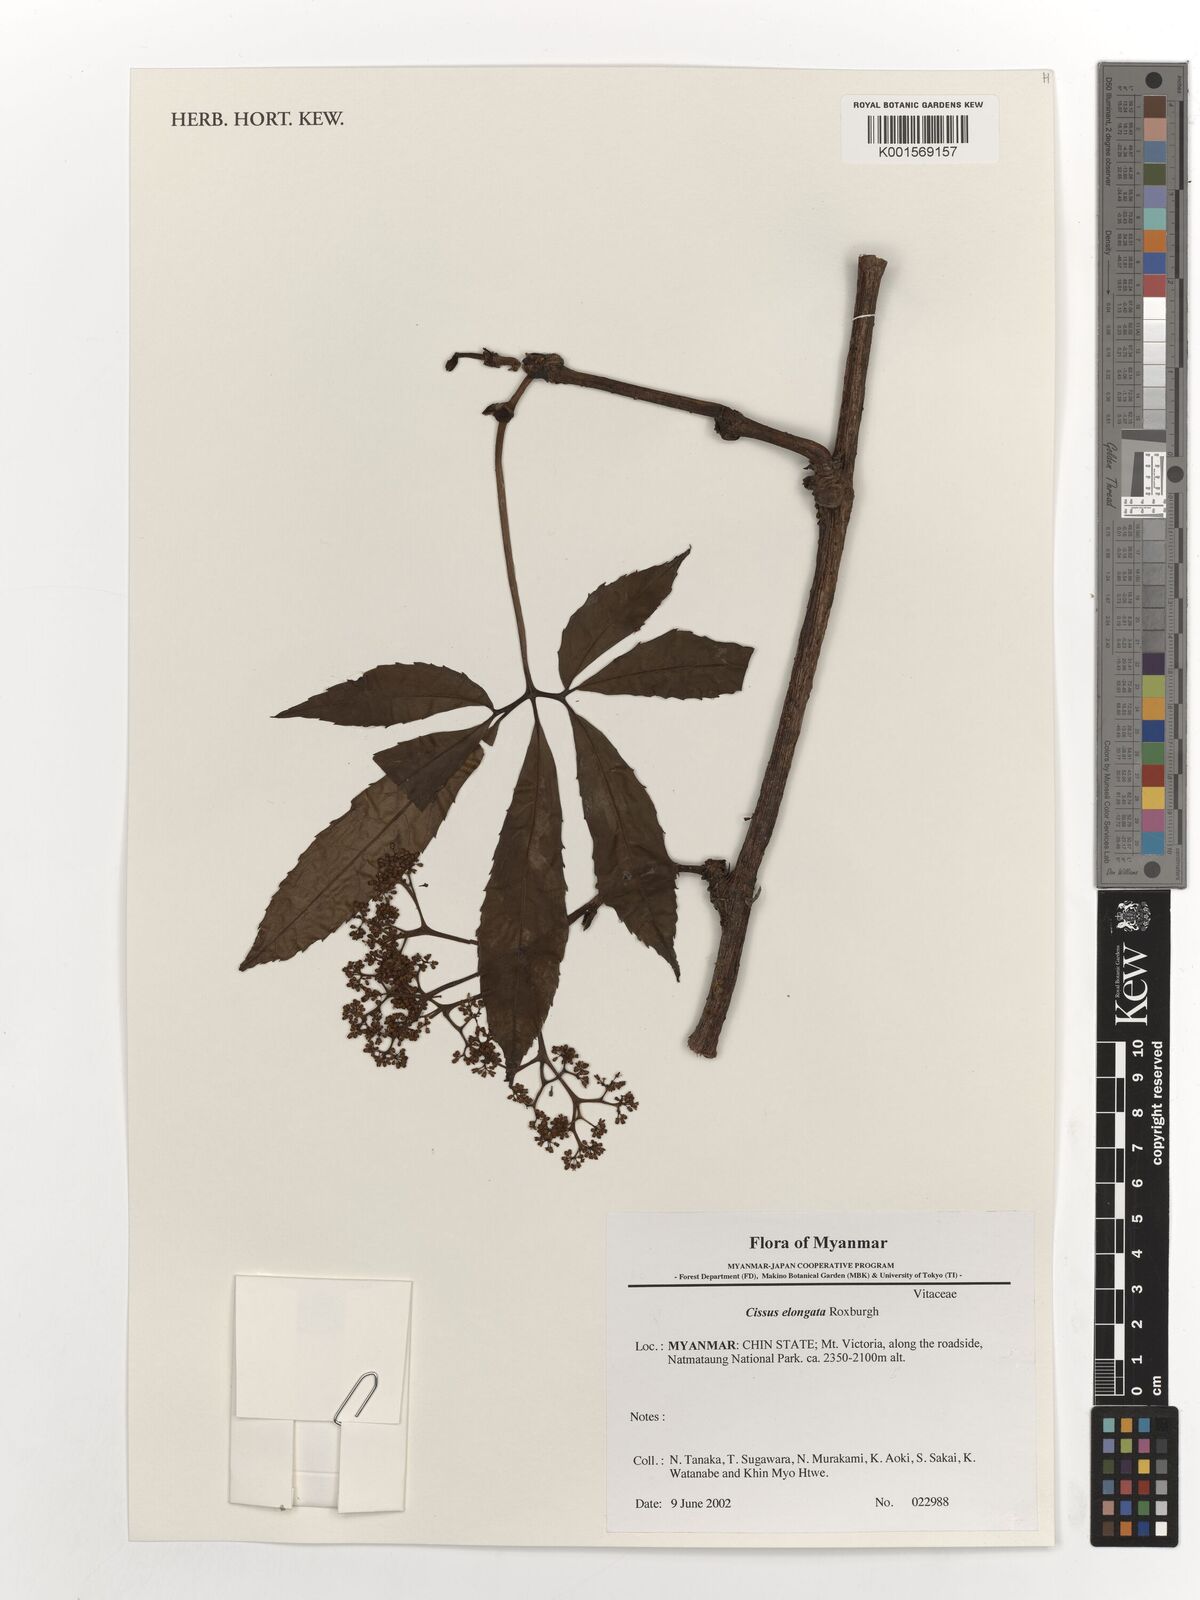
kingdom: Plantae
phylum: Tracheophyta
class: Magnoliopsida
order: Vitales
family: Vitaceae
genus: Cissus
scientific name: Cissus elongata
